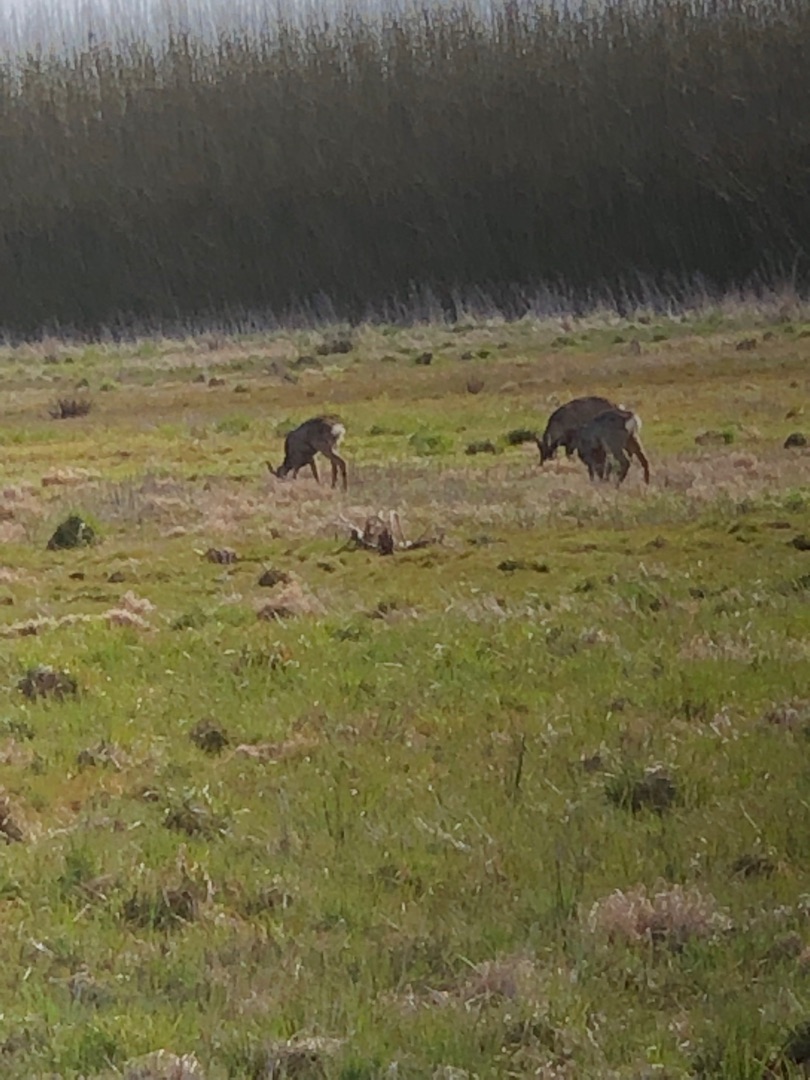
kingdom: Animalia
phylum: Chordata
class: Mammalia
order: Artiodactyla
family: Cervidae
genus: Capreolus
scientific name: Capreolus capreolus
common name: Rådyr
